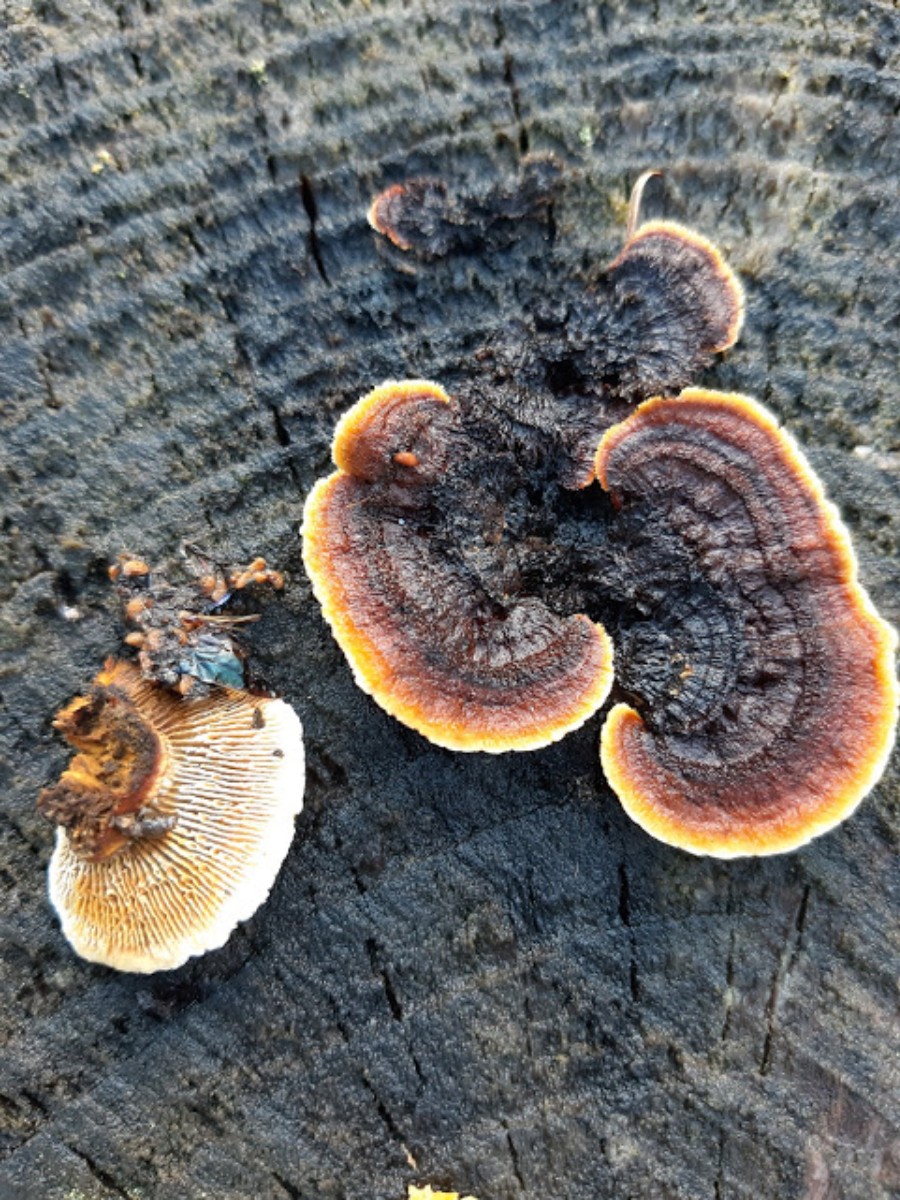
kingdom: Fungi
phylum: Basidiomycota
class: Agaricomycetes
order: Gloeophyllales
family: Gloeophyllaceae
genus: Gloeophyllum
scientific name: Gloeophyllum sepiarium
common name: fyrre-korkhat
